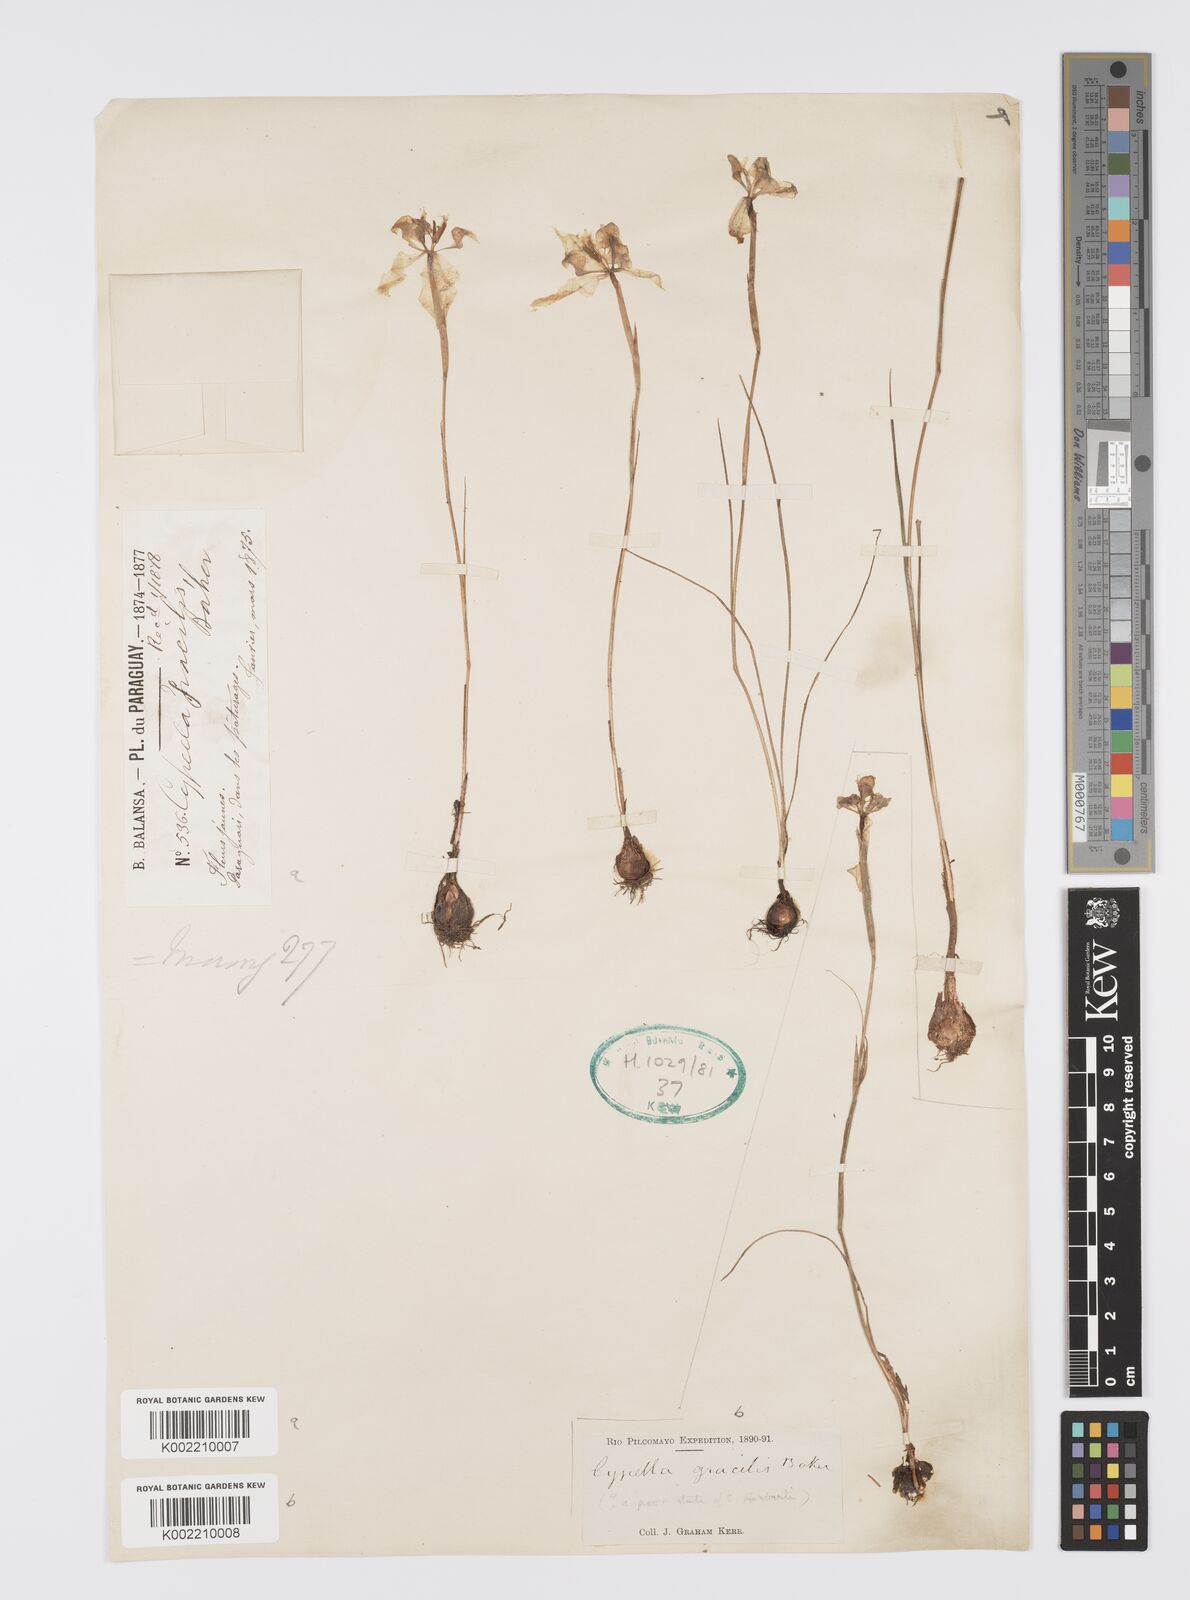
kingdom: Plantae
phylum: Tracheophyta
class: Liliopsida
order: Asparagales
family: Iridaceae
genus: Trimezia
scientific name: Trimezia gracilis
